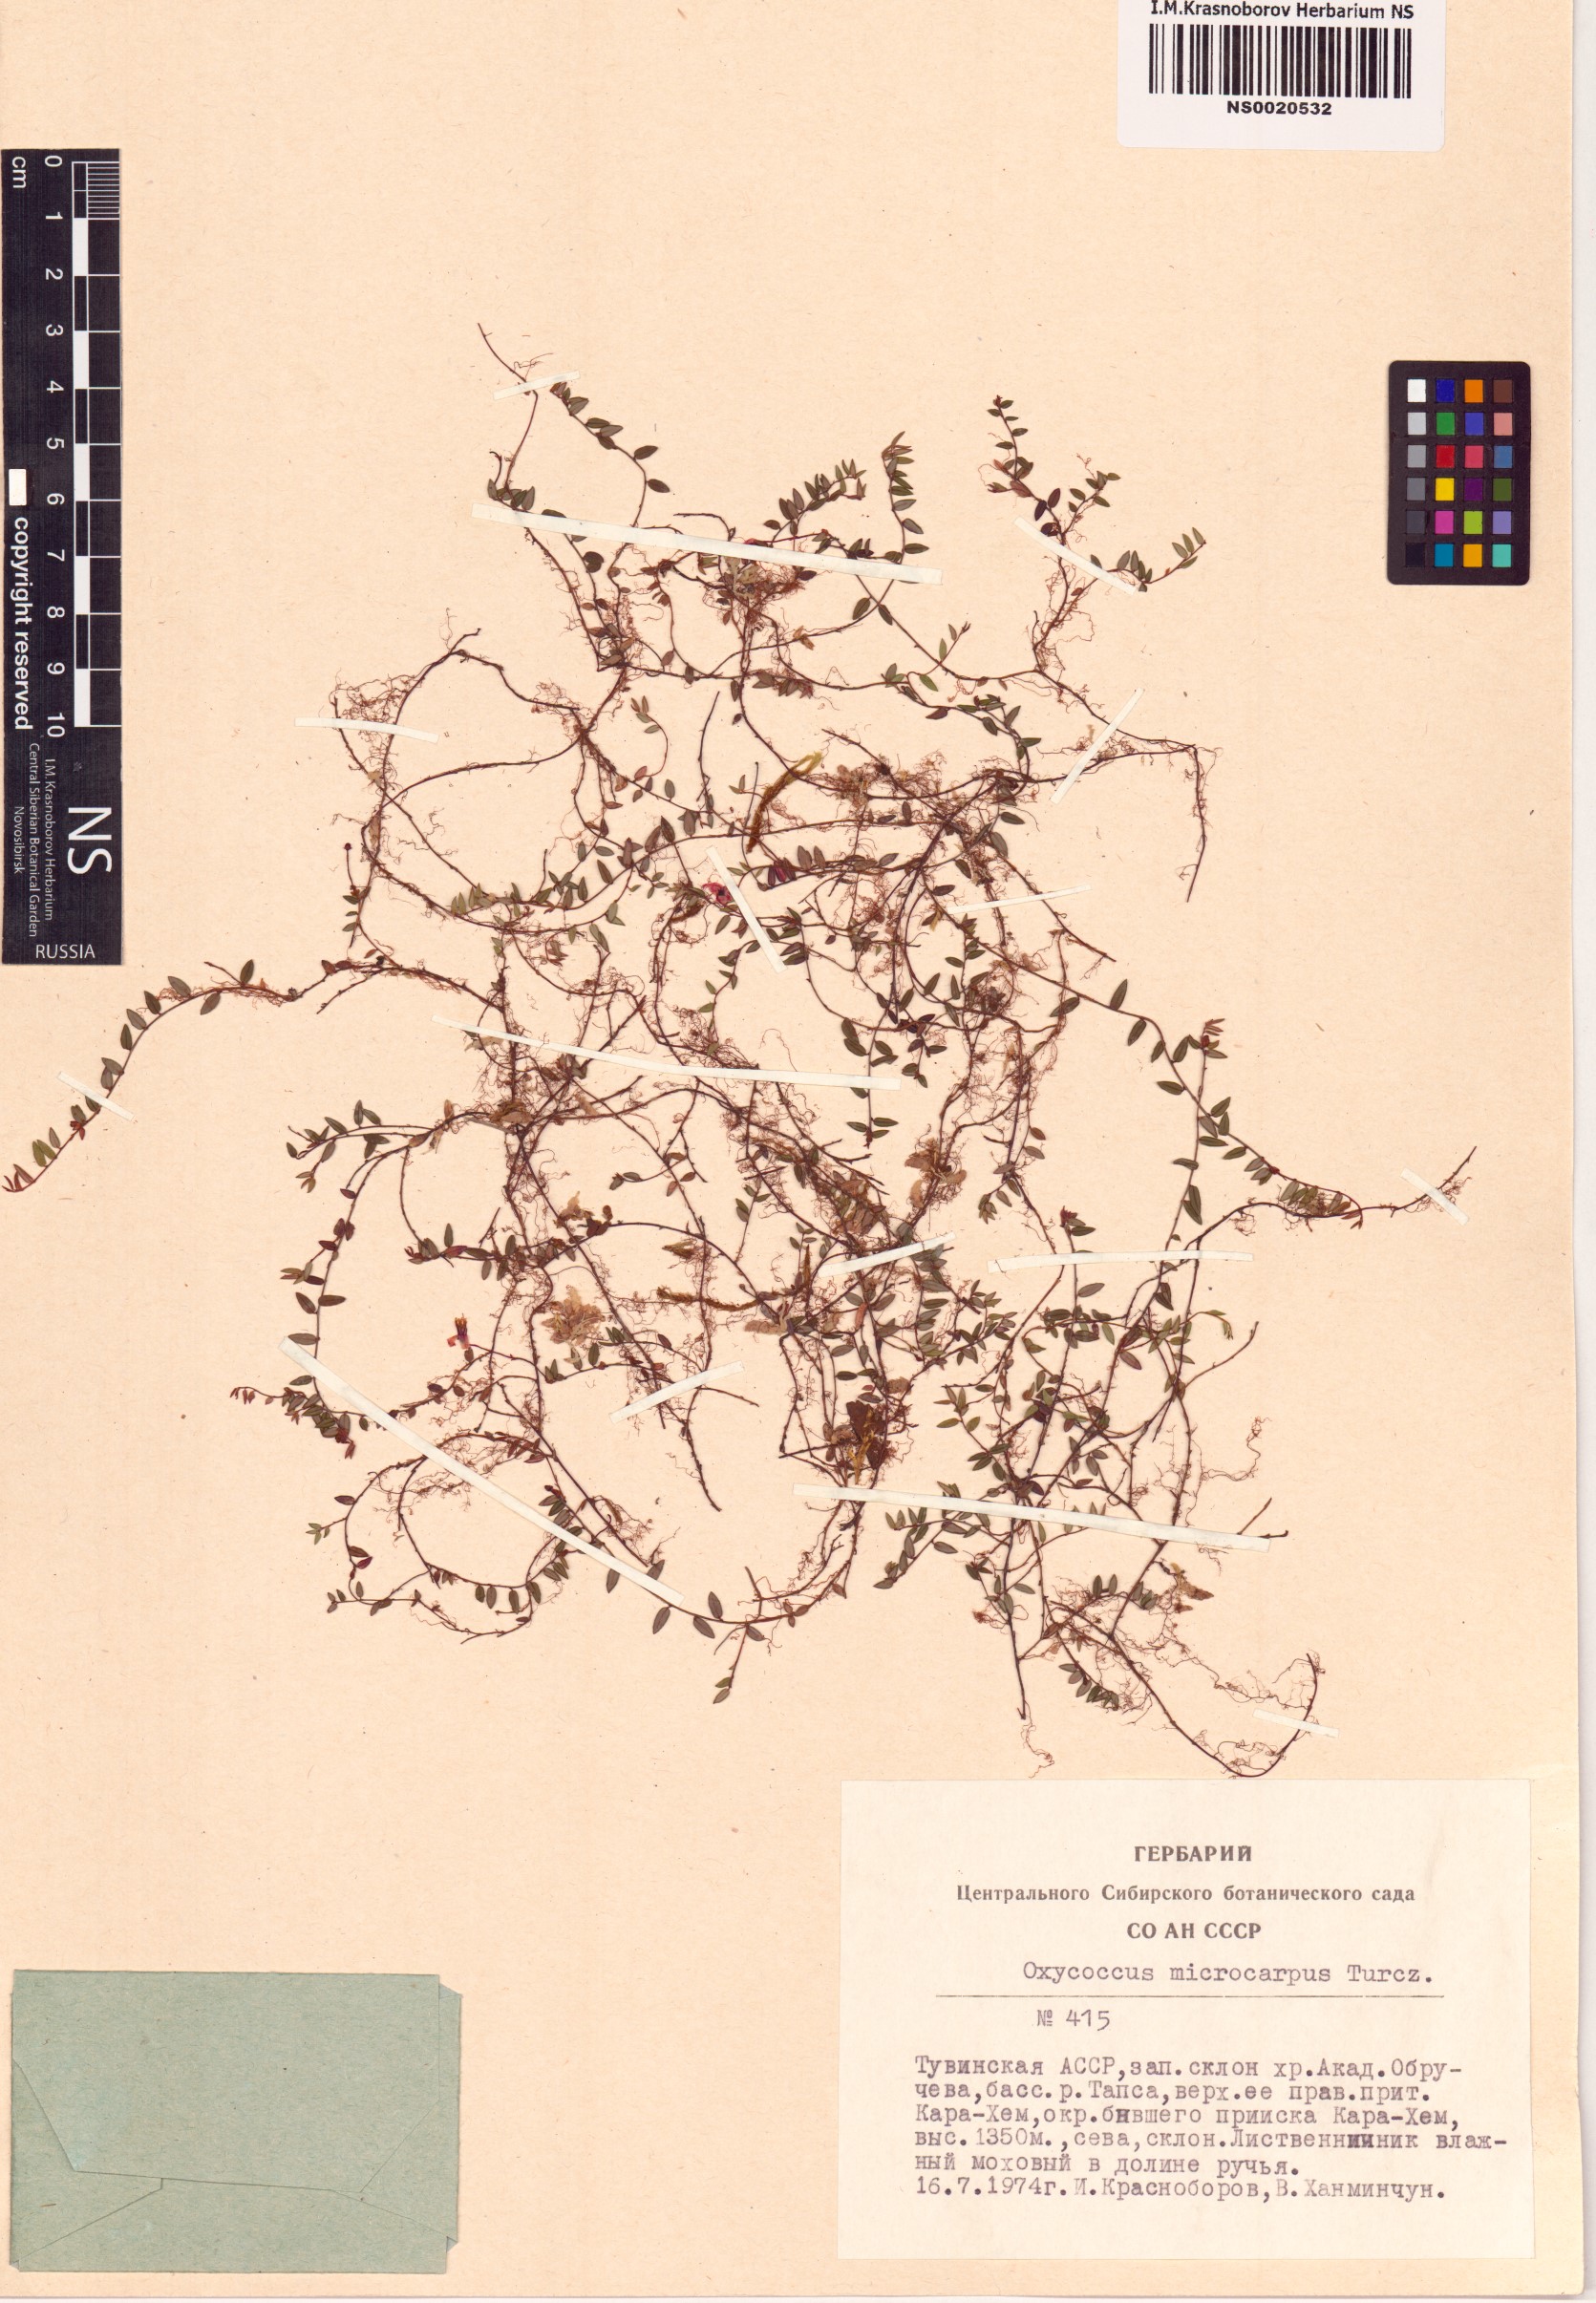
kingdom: Plantae
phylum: Tracheophyta
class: Magnoliopsida
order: Ericales
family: Ericaceae
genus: Vaccinium
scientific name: Vaccinium microcarpum
